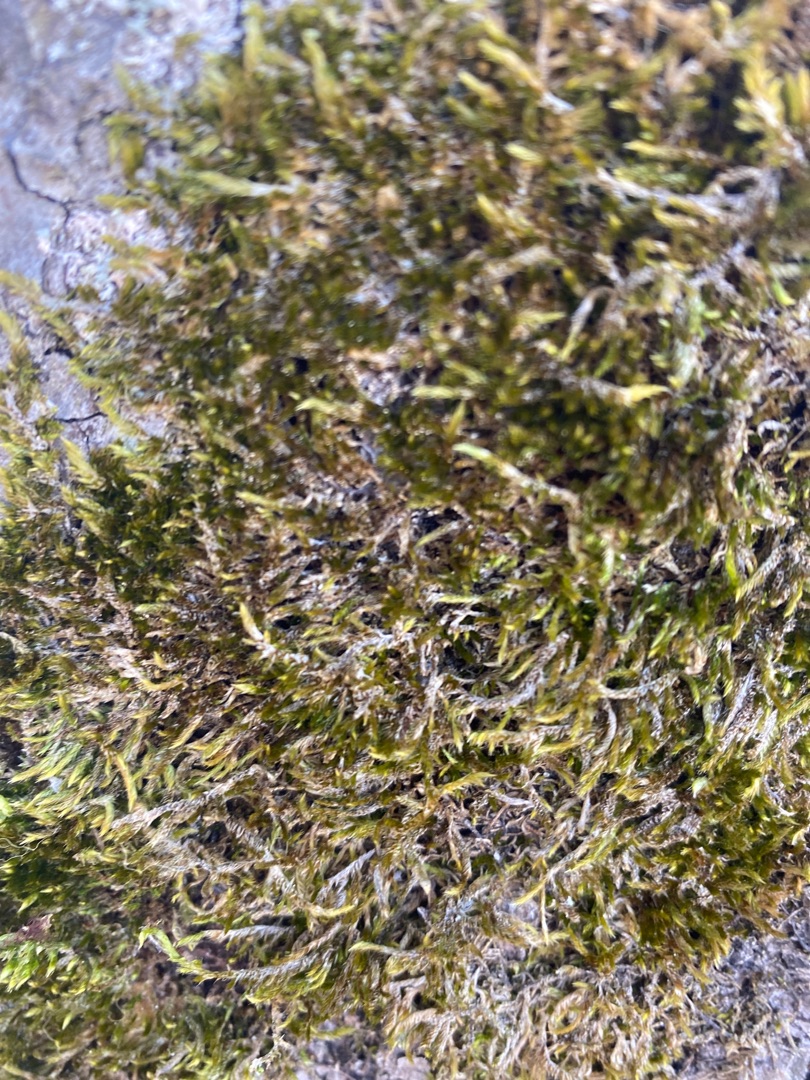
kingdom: Plantae
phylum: Bryophyta
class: Bryopsida
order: Hypnales
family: Hypnaceae
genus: Hypnum
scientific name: Hypnum
